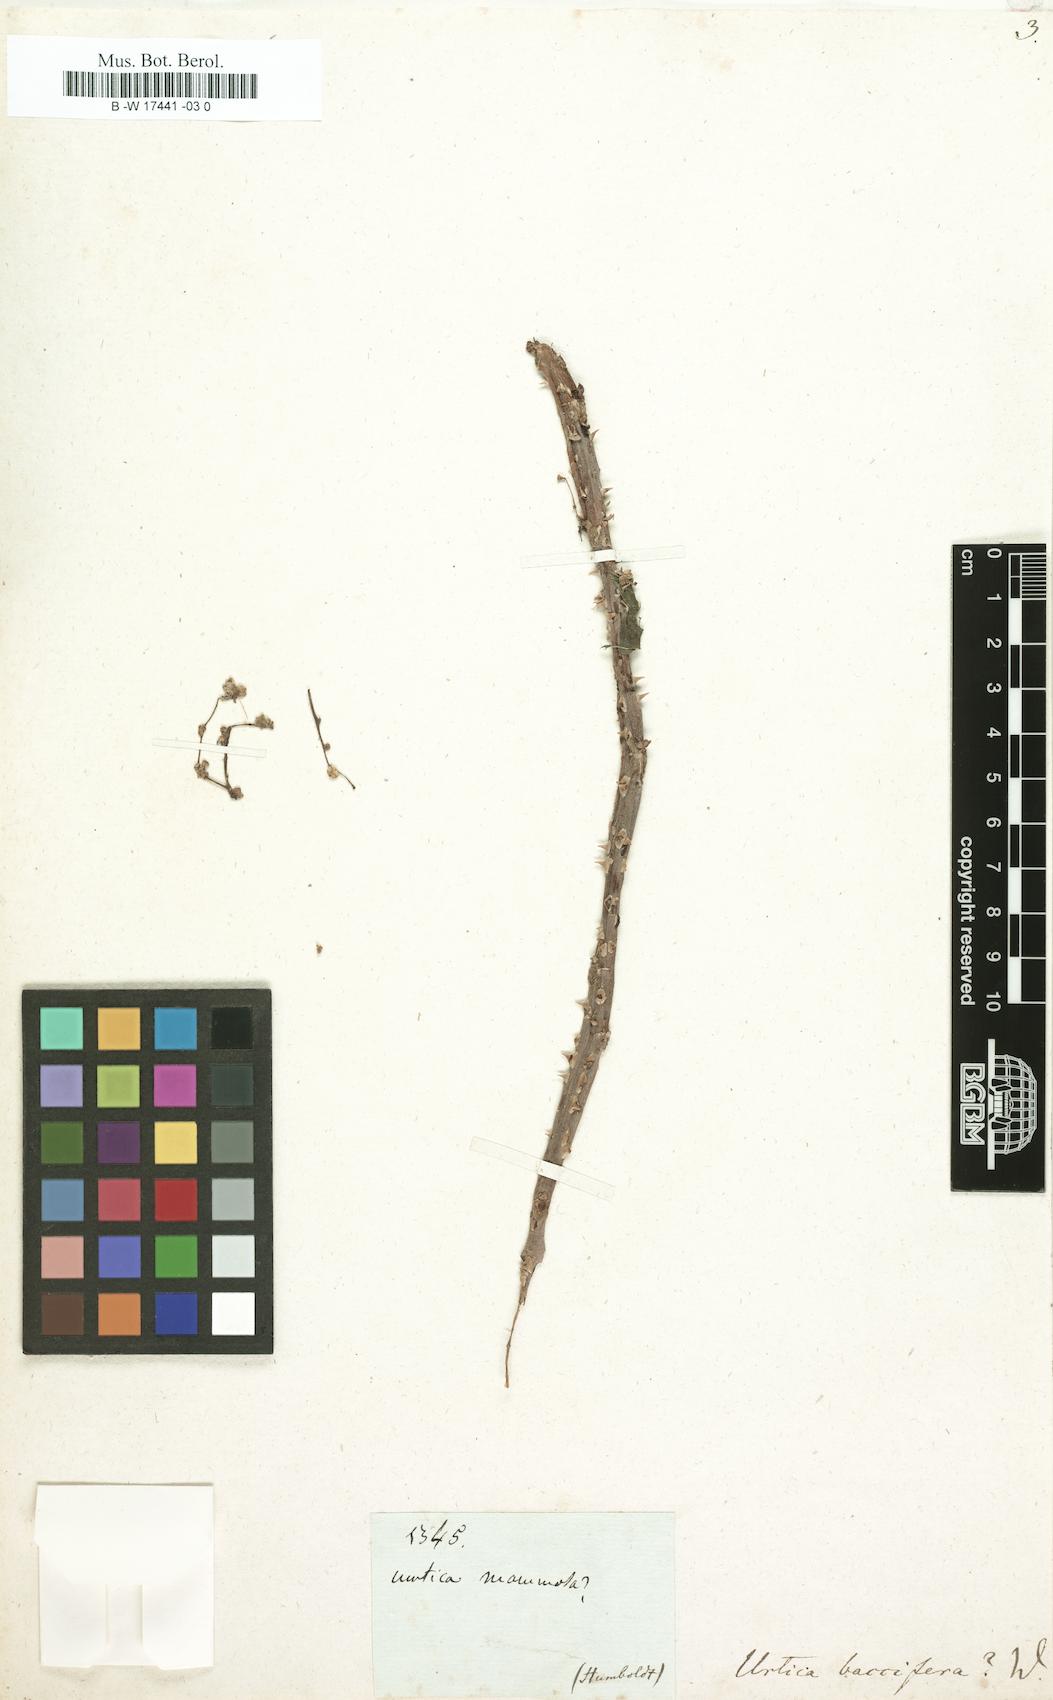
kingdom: Plantae
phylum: Tracheophyta
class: Magnoliopsida
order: Rosales
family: Urticaceae
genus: Urera
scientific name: Urera baccifera
